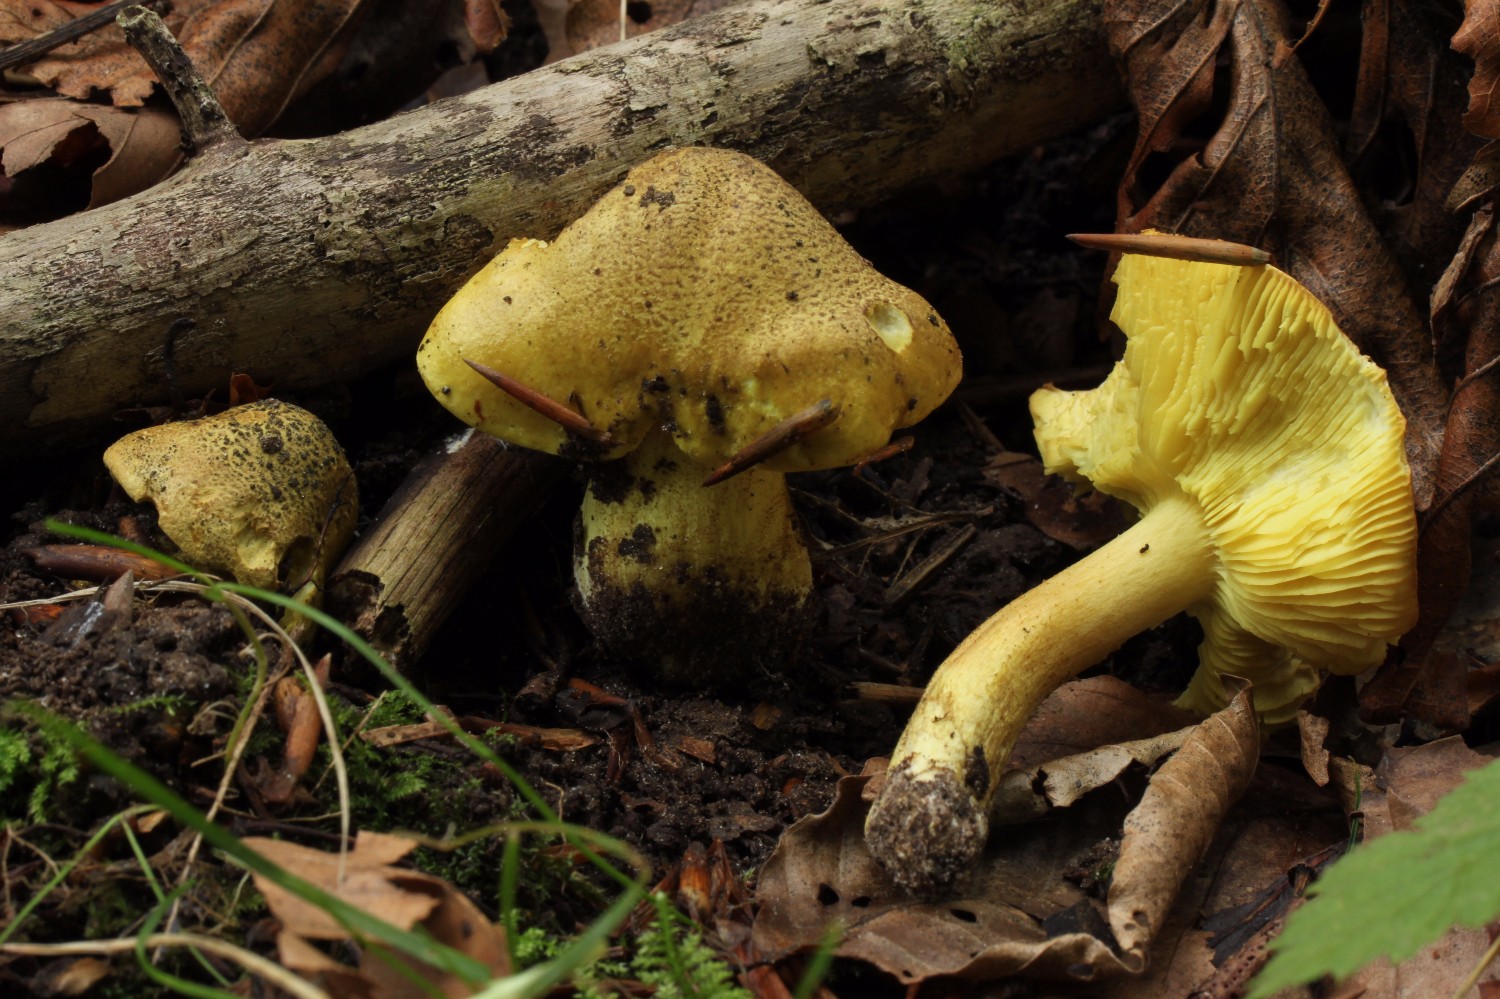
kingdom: Fungi
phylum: Basidiomycota
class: Agaricomycetes
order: Agaricales
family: Tricholomataceae
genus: Tricholoma
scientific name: Tricholoma frondosae
